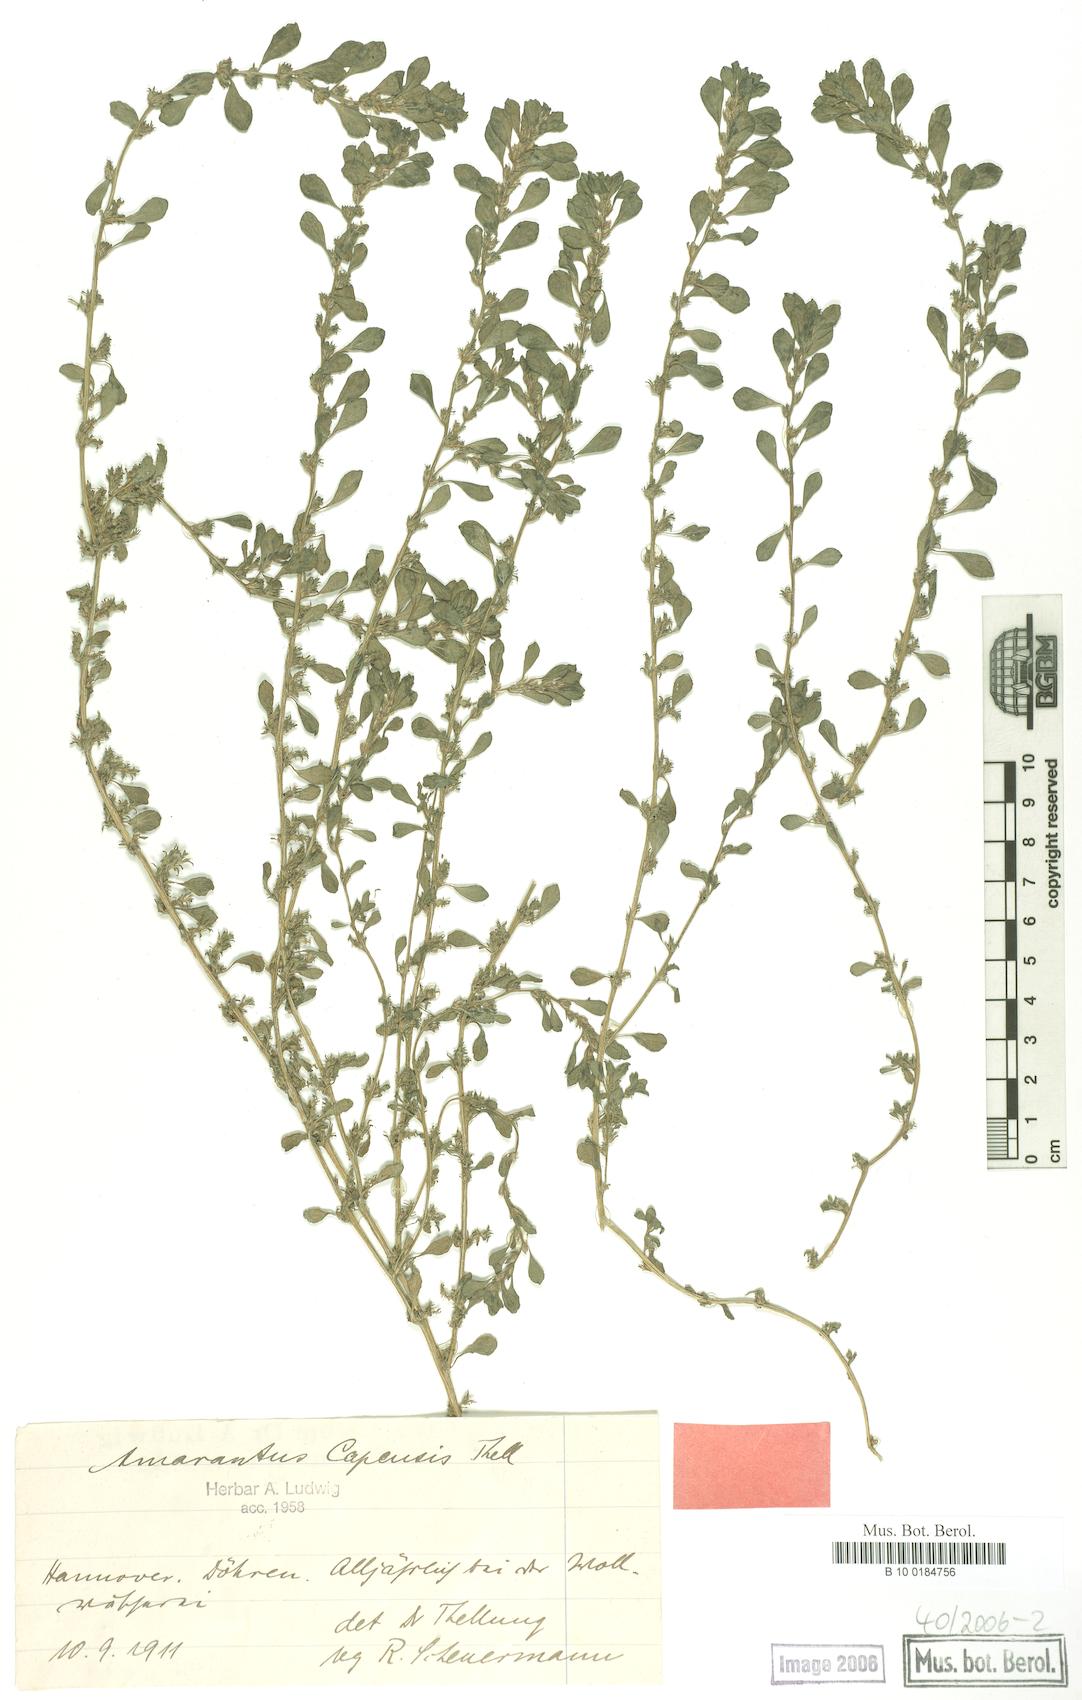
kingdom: Plantae
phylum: Tracheophyta
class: Magnoliopsida
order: Caryophyllales
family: Amaranthaceae
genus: Amaranthus
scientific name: Amaranthus capensis
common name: Cape pigweed
